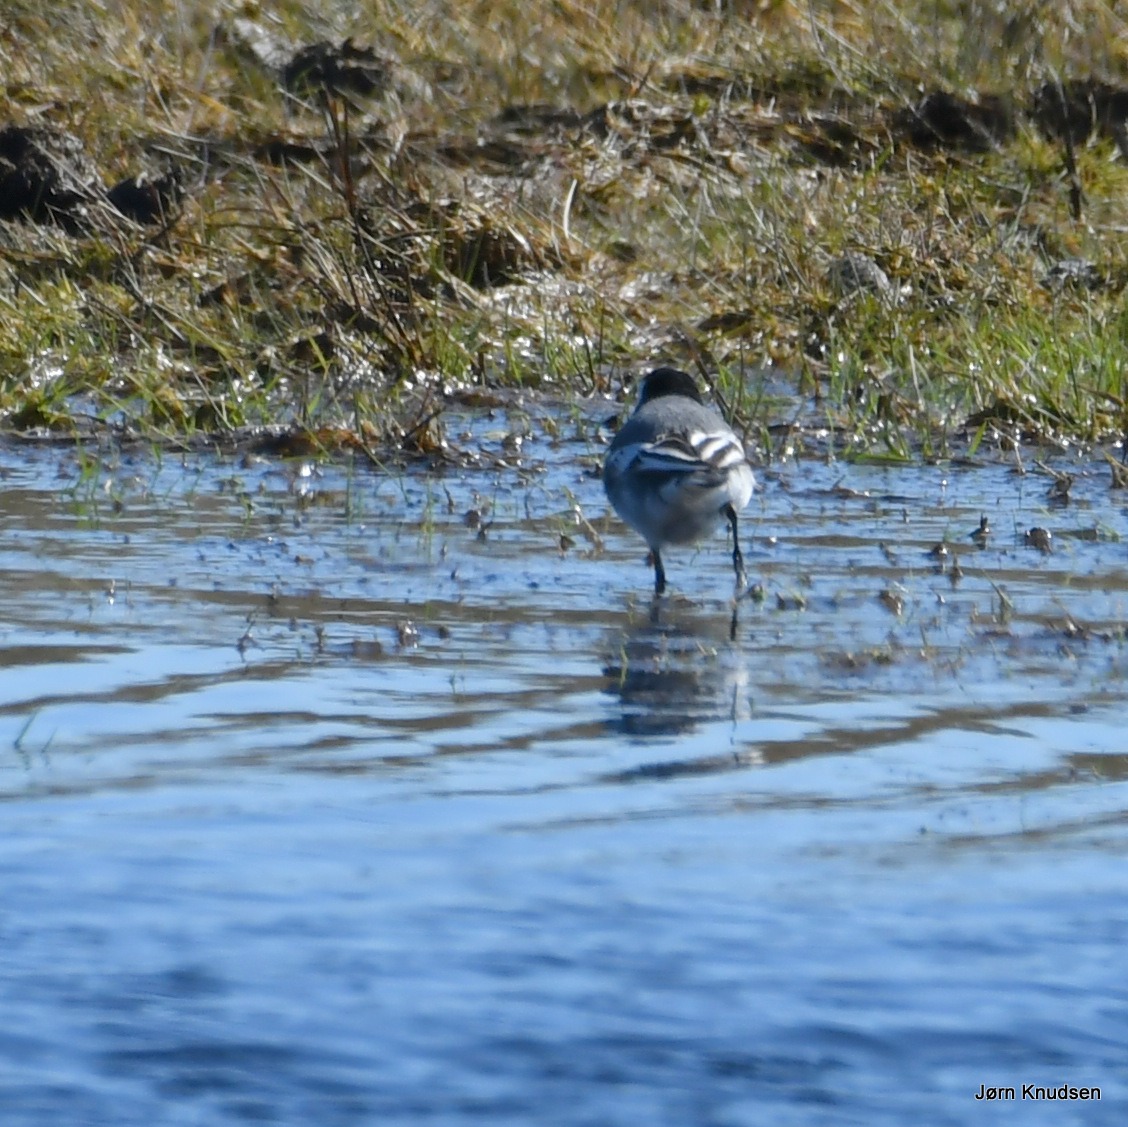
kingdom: Animalia
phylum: Chordata
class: Aves
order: Passeriformes
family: Motacillidae
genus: Motacilla
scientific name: Motacilla alba
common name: Hvid vipstjert
